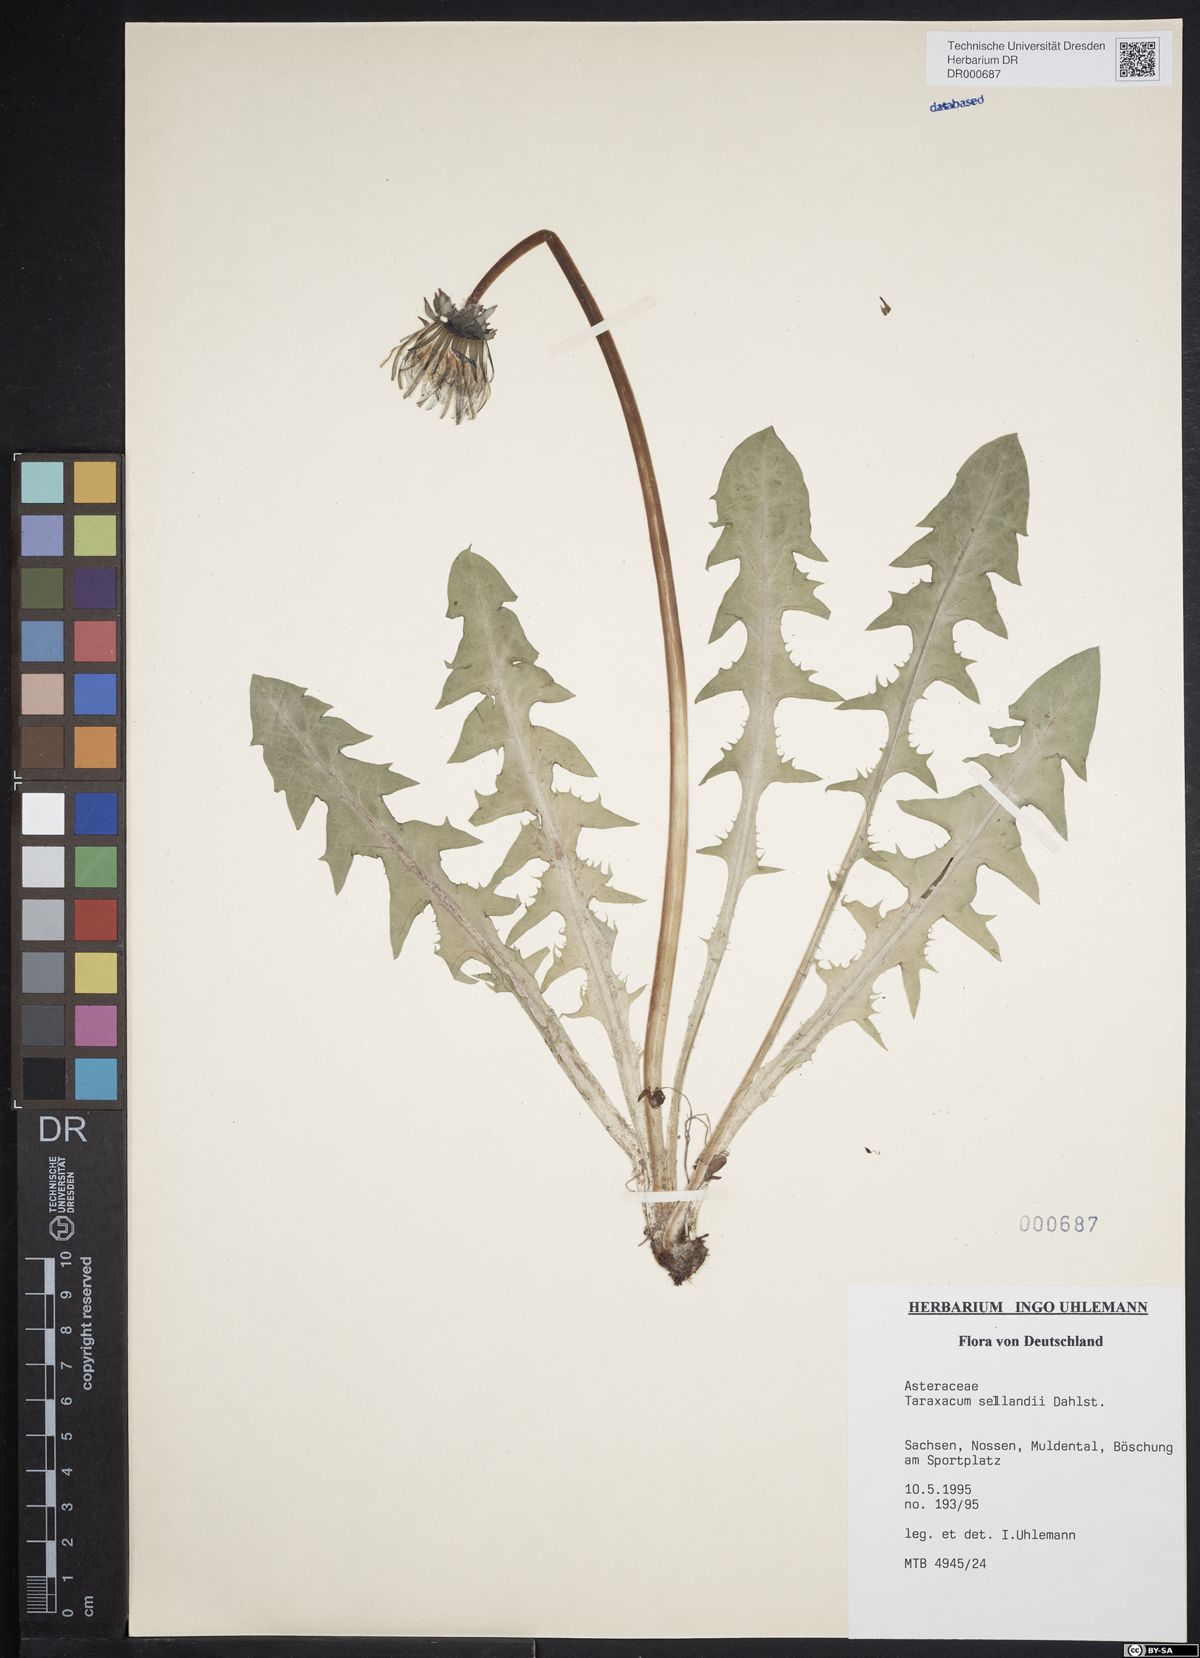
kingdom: Plantae
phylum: Tracheophyta
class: Magnoliopsida
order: Asterales
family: Asteraceae
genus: Taraxacum
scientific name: Taraxacum sellandii
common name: Selland's dandelion
